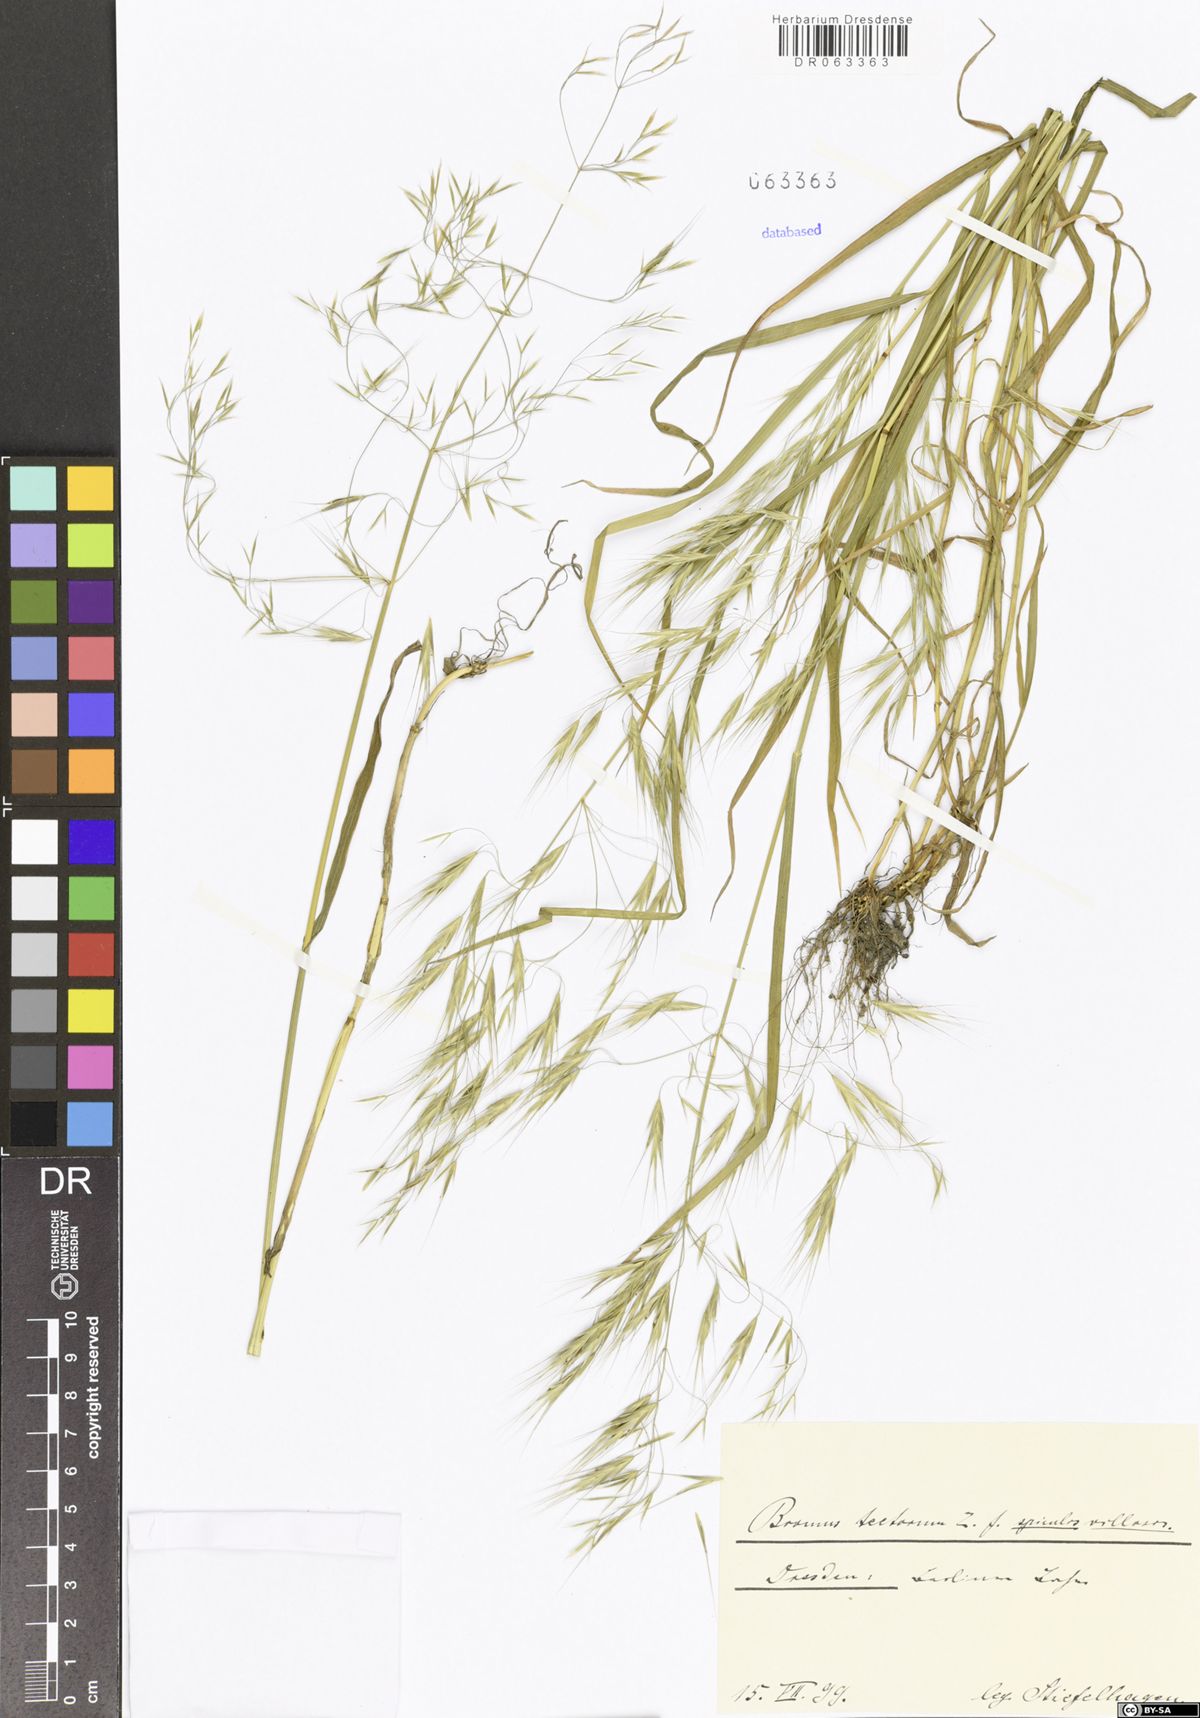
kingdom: Plantae
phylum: Tracheophyta
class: Liliopsida
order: Poales
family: Poaceae
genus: Bromus
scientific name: Bromus tectorum
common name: Cheatgrass
